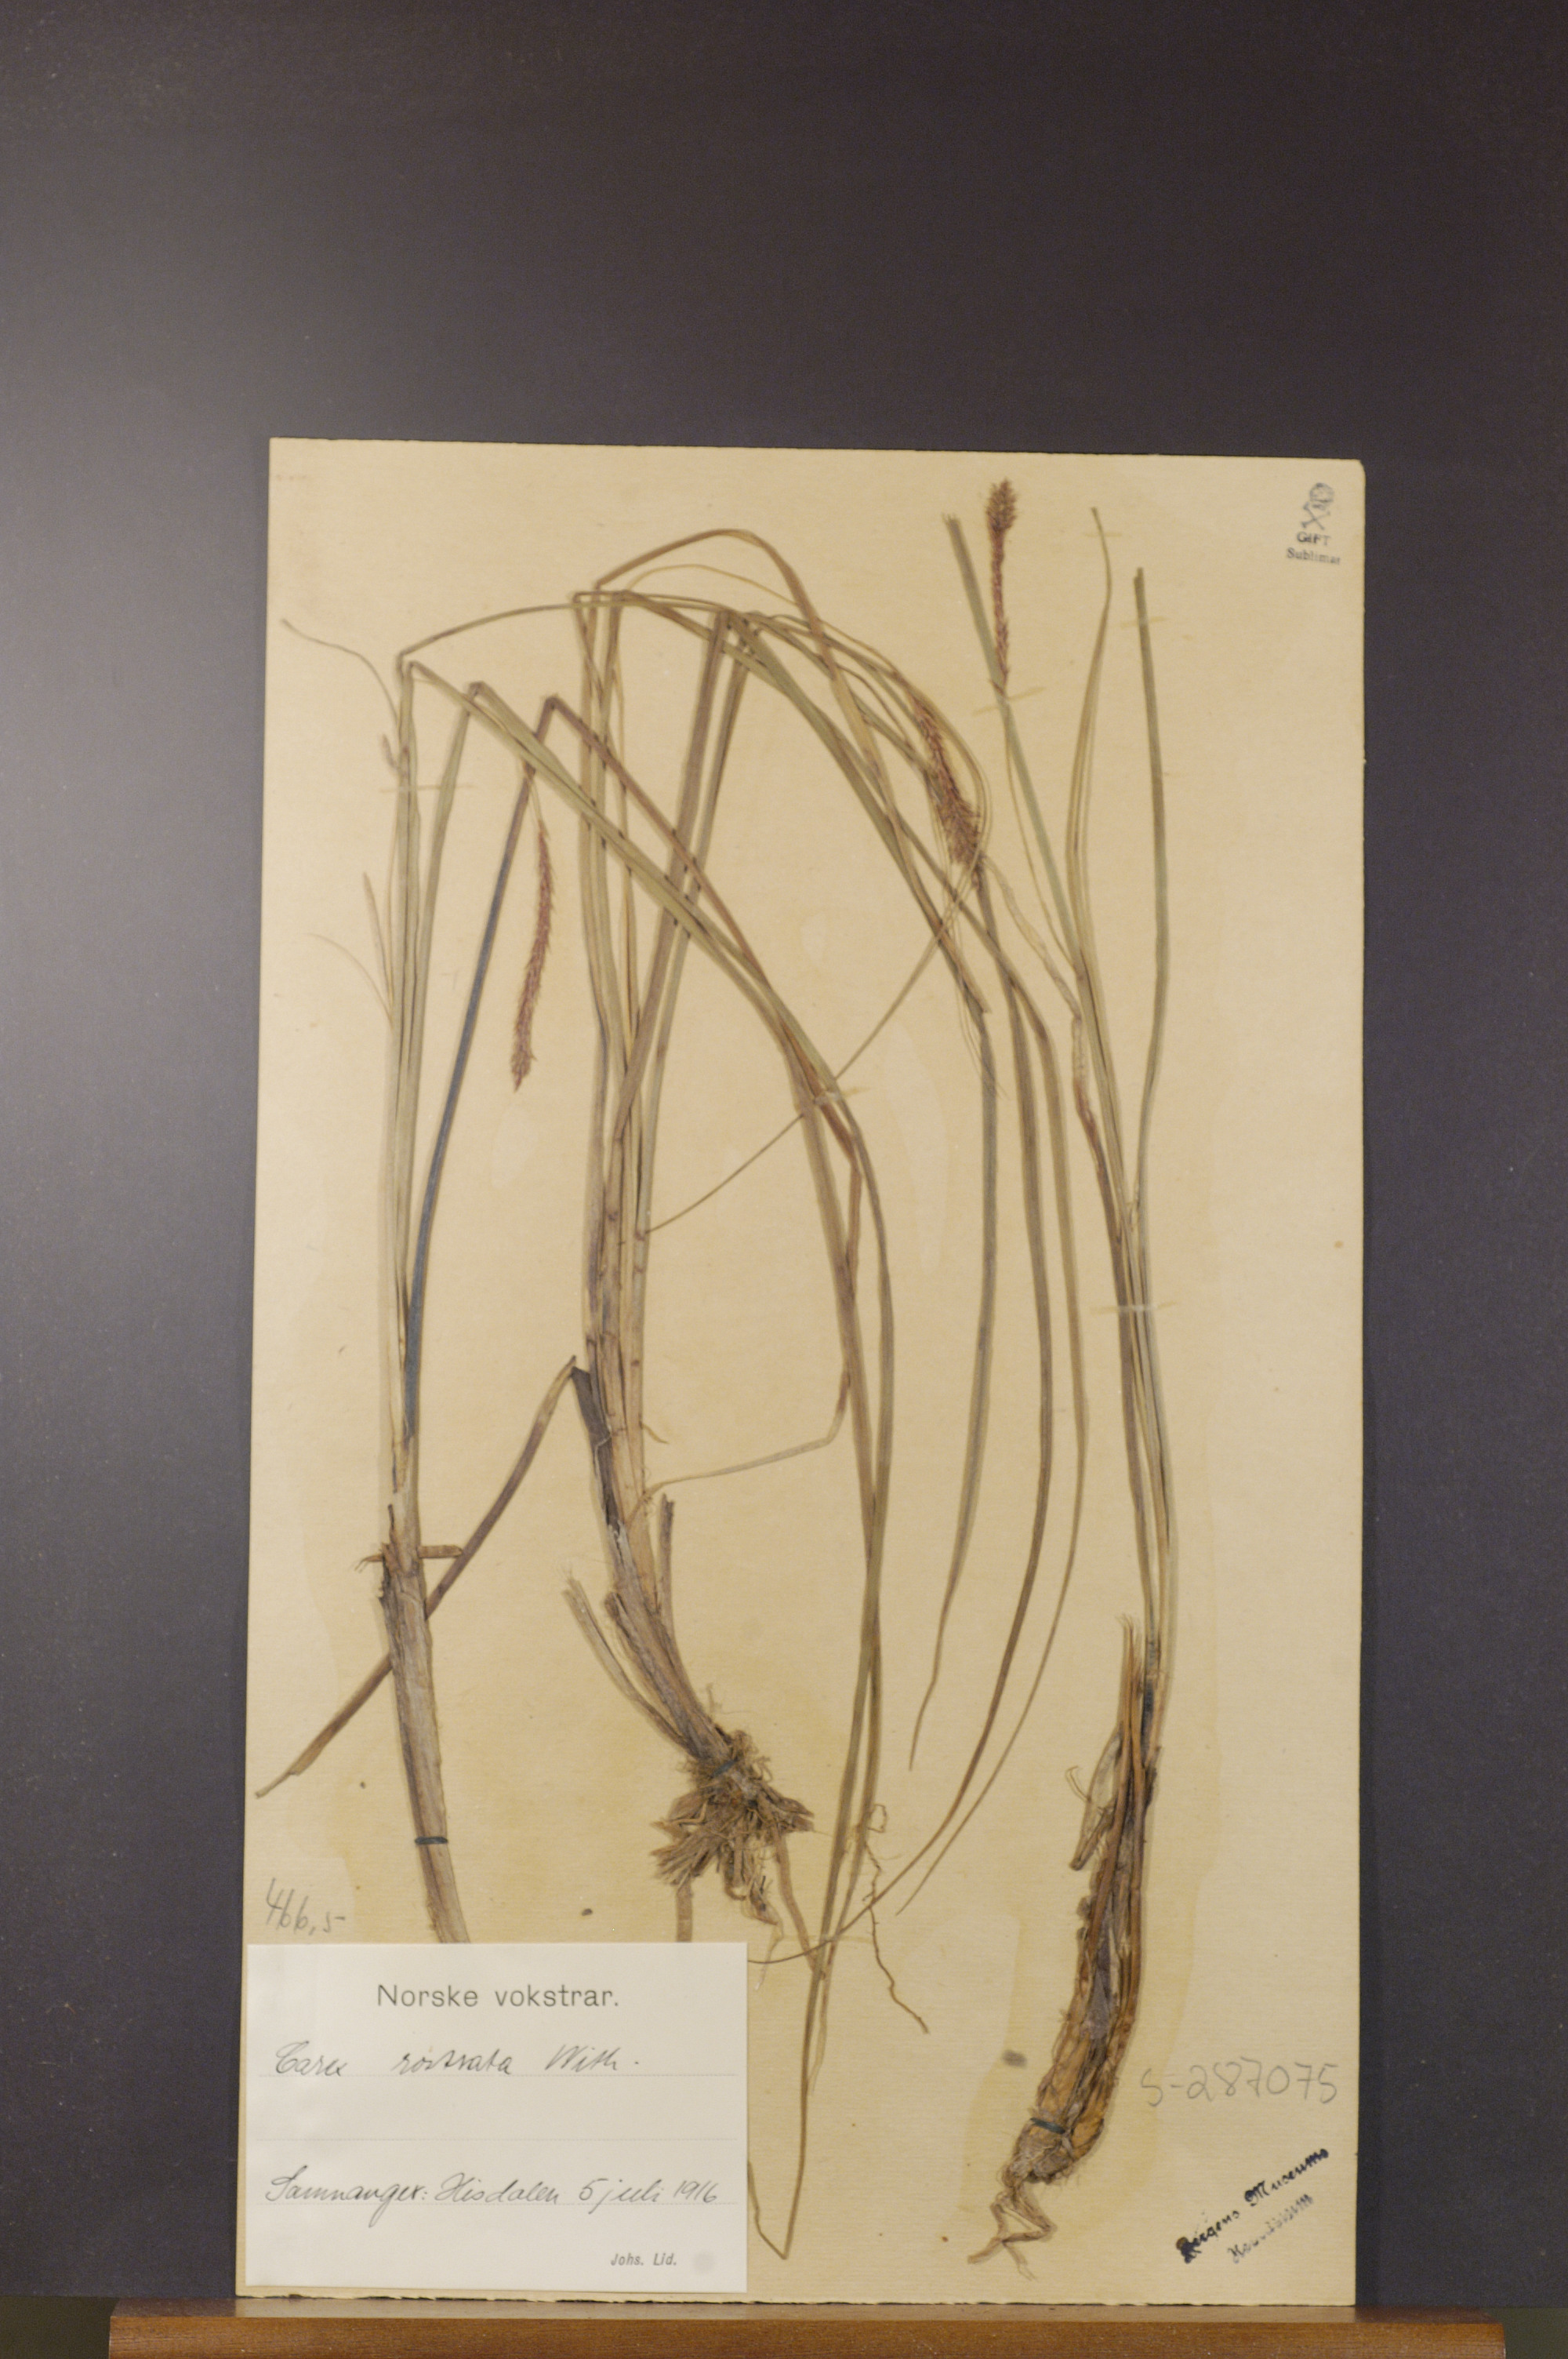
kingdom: Plantae
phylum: Tracheophyta
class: Liliopsida
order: Poales
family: Cyperaceae
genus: Carex
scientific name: Carex rostrata
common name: Bottle sedge
